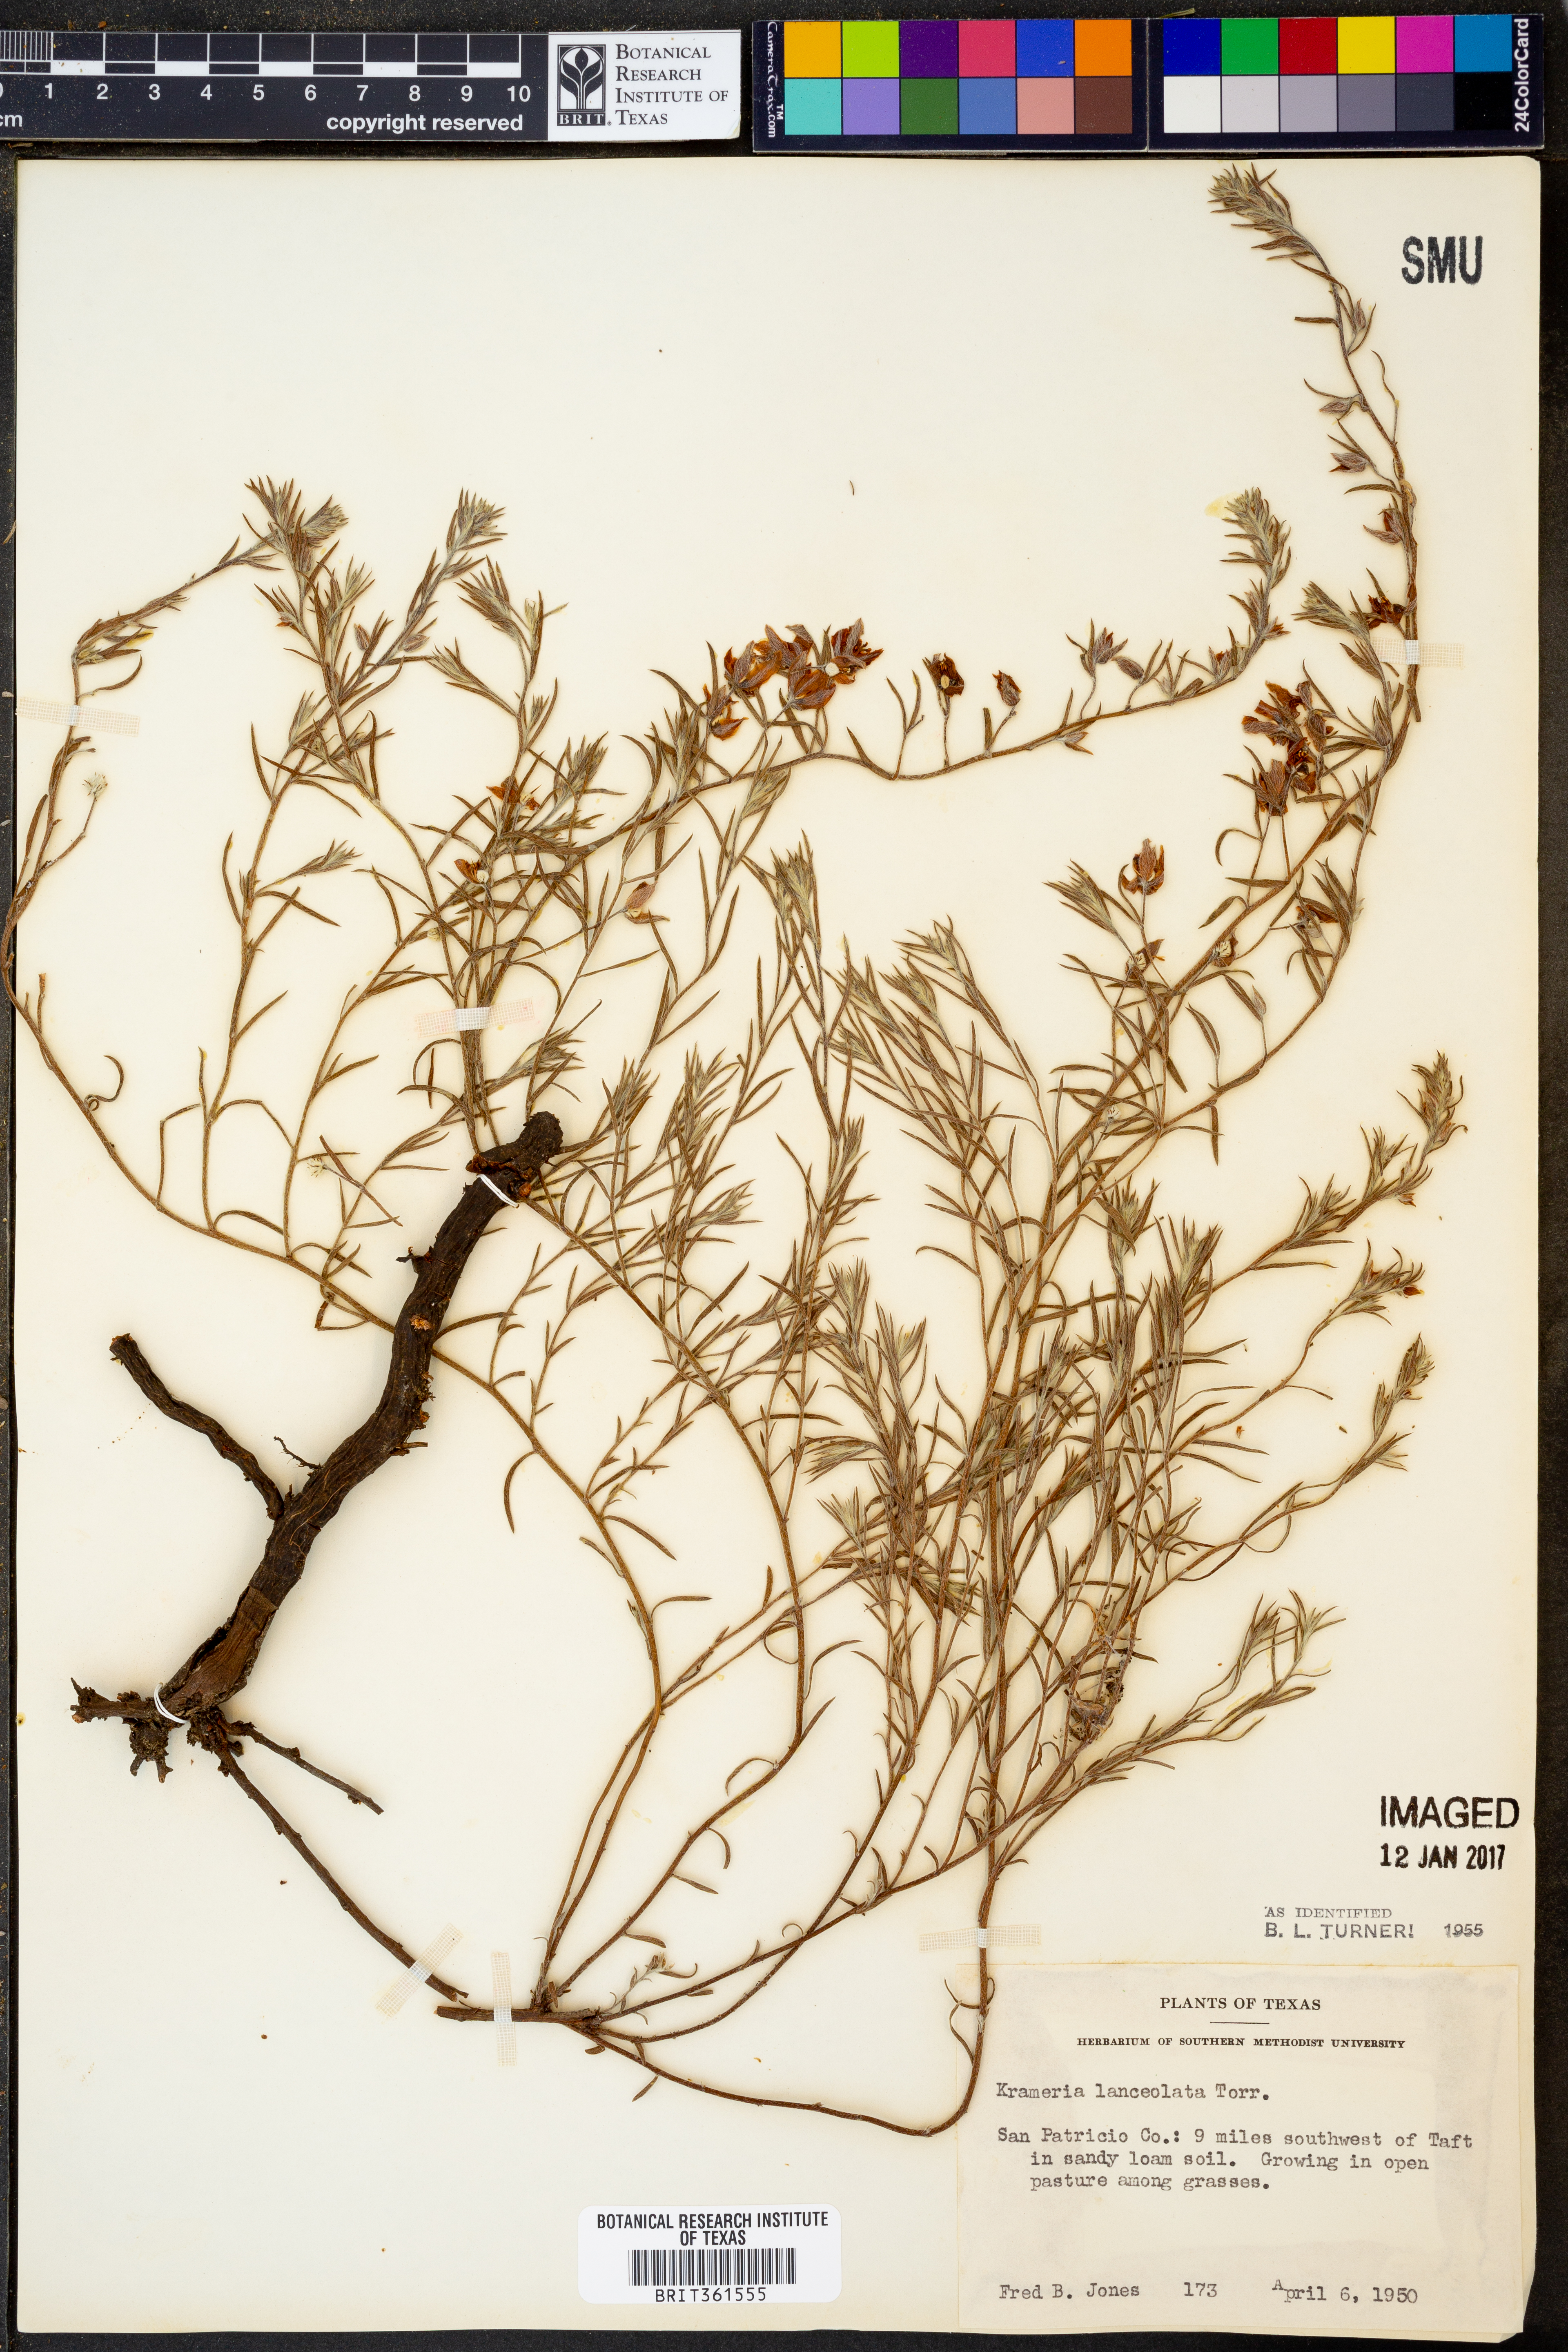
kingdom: Plantae
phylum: Tracheophyta
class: Magnoliopsida
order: Zygophyllales
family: Krameriaceae
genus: Krameria
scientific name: Krameria lanceolata
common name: Ratany
